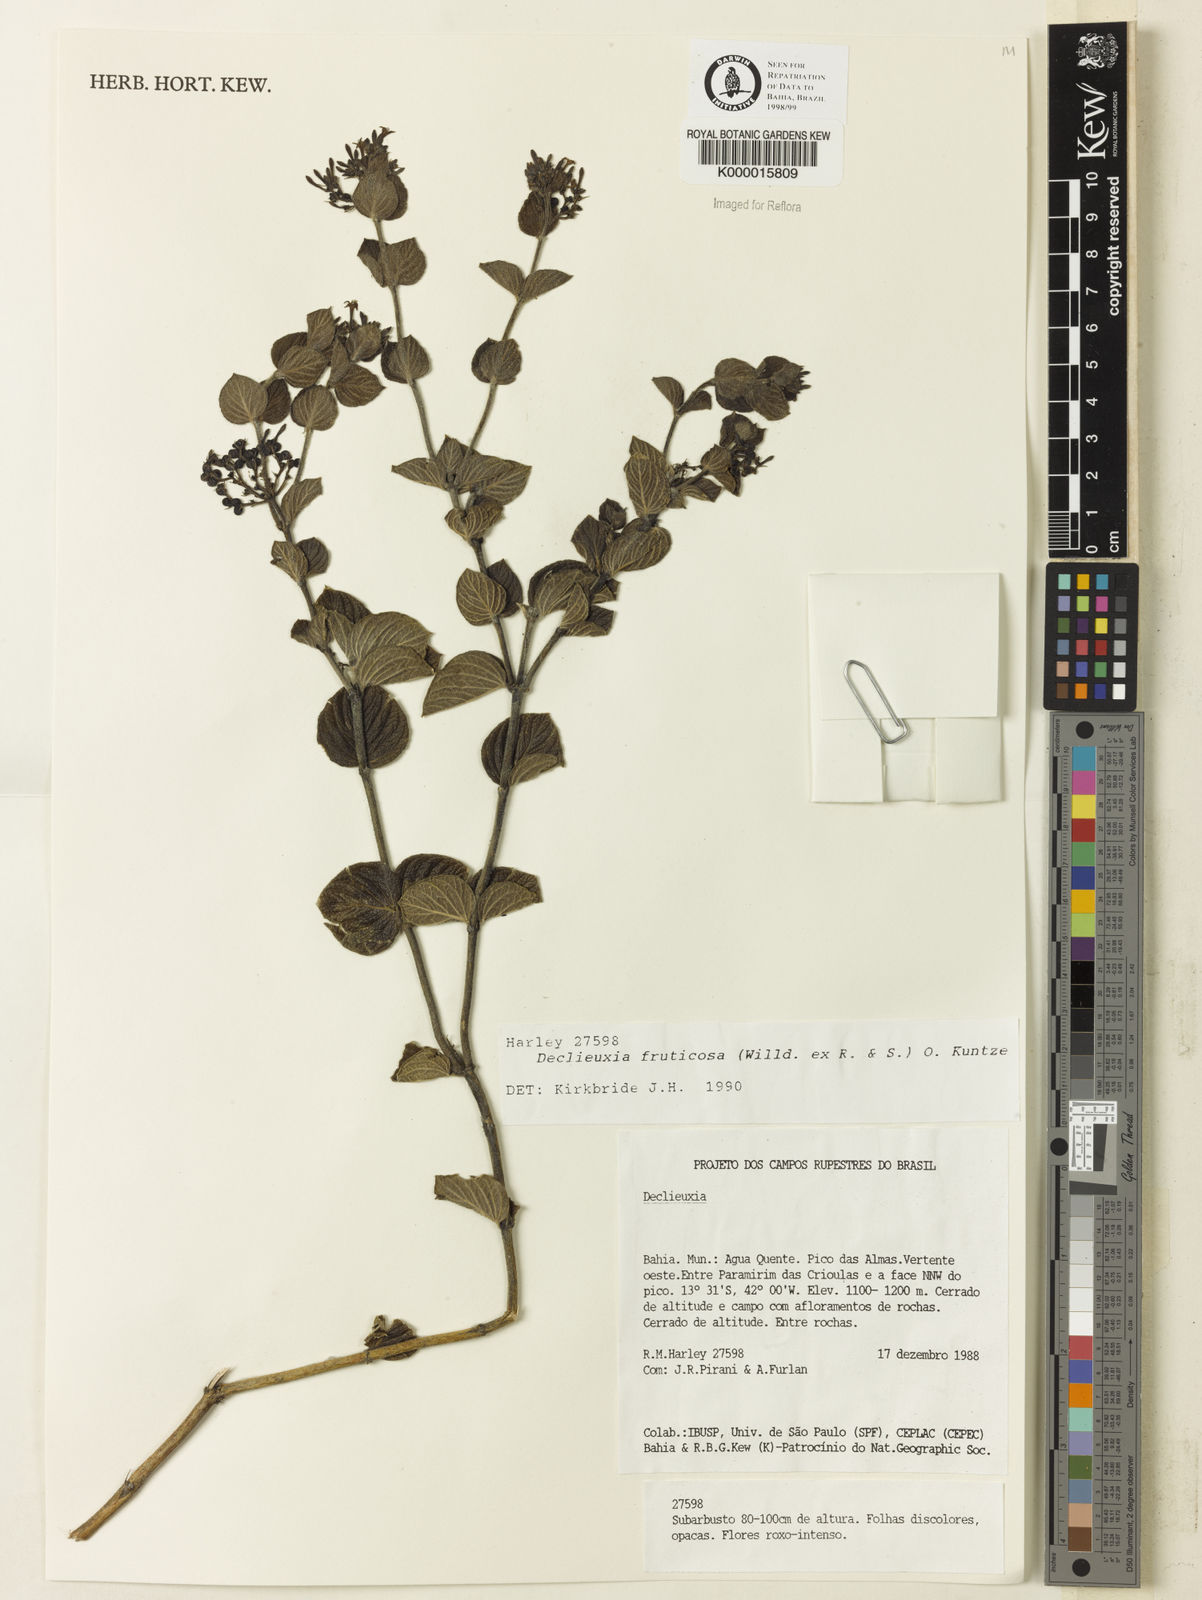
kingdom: Plantae
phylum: Tracheophyta
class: Magnoliopsida
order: Gentianales
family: Rubiaceae
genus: Declieuxia
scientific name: Declieuxia fruticosa
